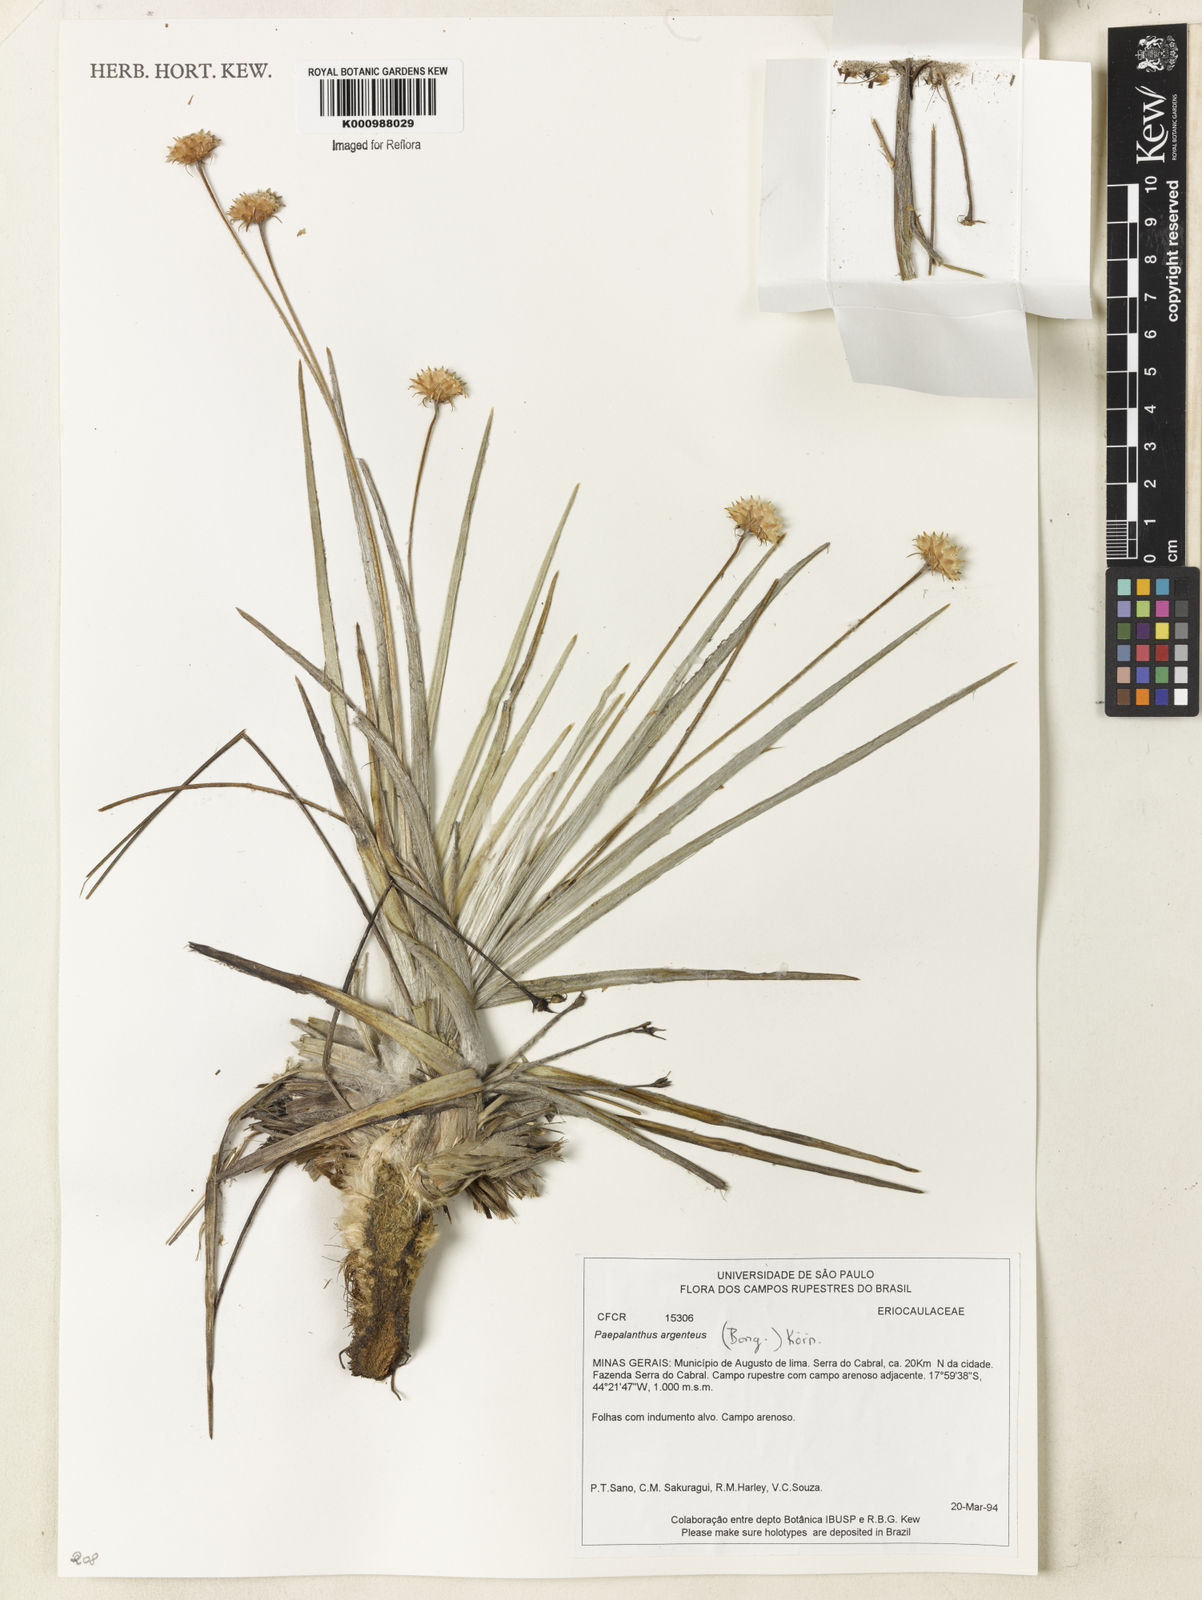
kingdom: Plantae
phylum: Tracheophyta
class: Liliopsida
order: Poales
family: Eriocaulaceae
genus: Paepalanthus
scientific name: Paepalanthus
